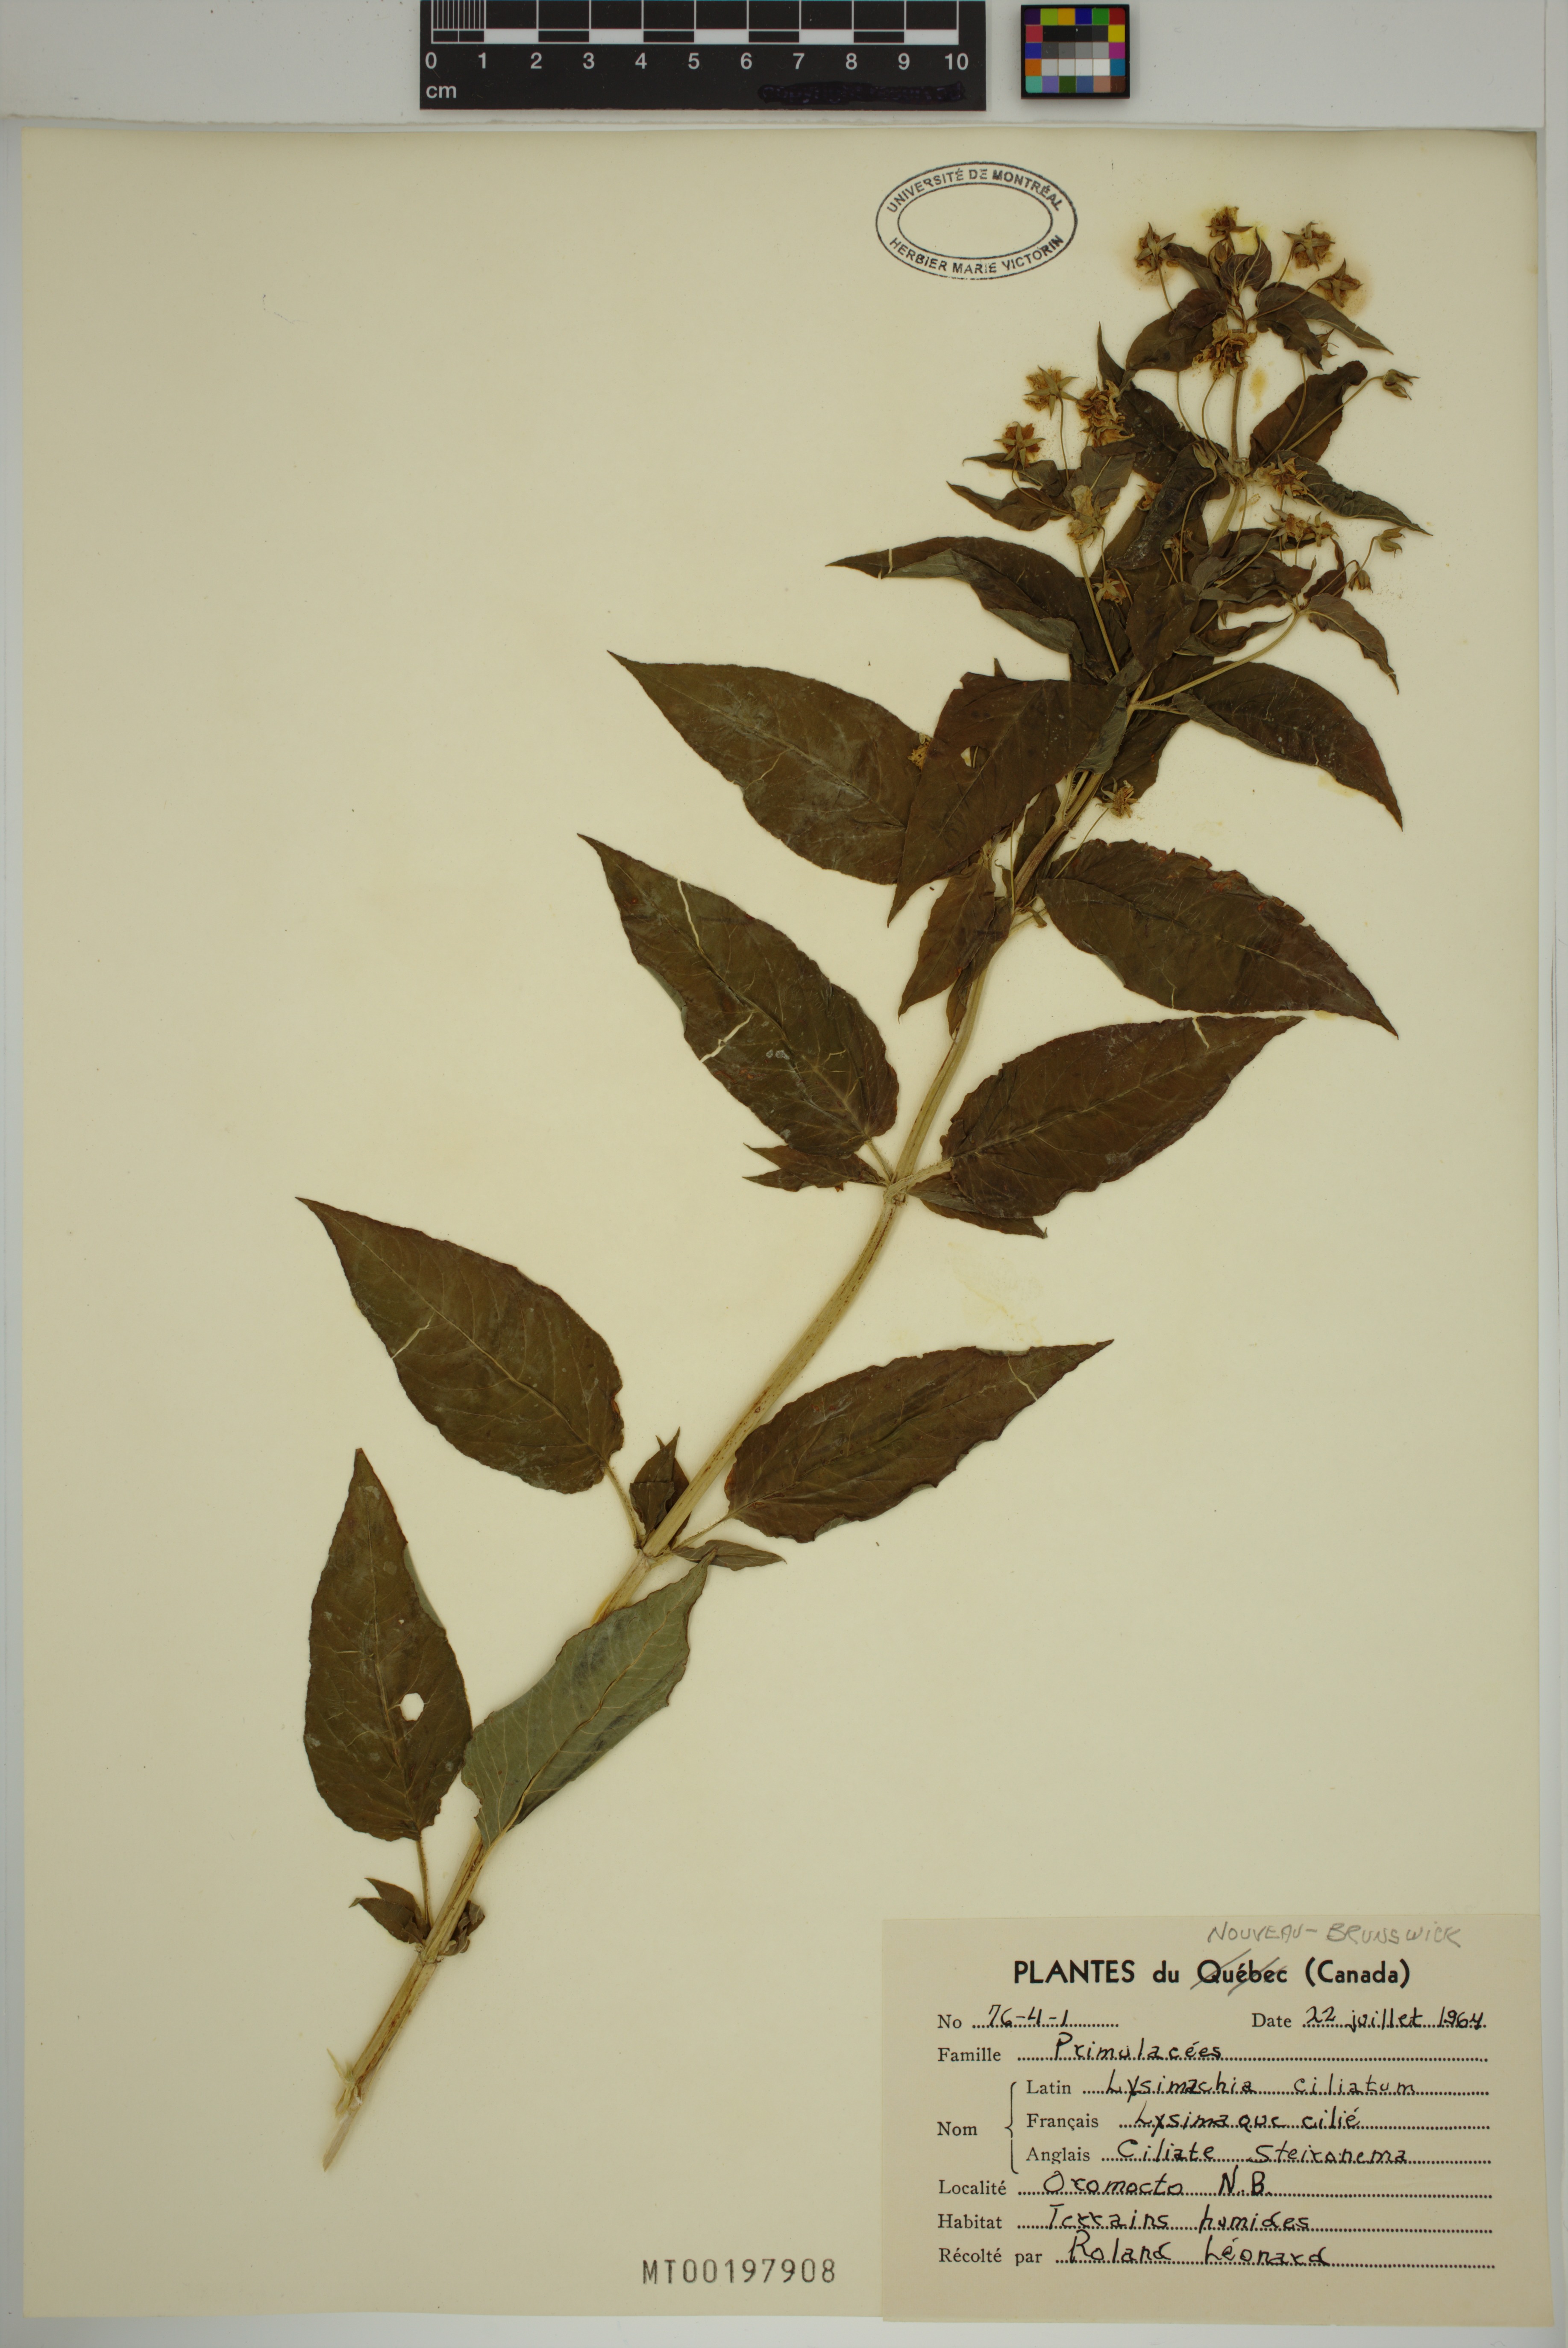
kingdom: Plantae
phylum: Tracheophyta
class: Magnoliopsida
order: Ericales
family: Primulaceae
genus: Lysimachia
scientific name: Lysimachia ciliata
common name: Fringed loosestrife
